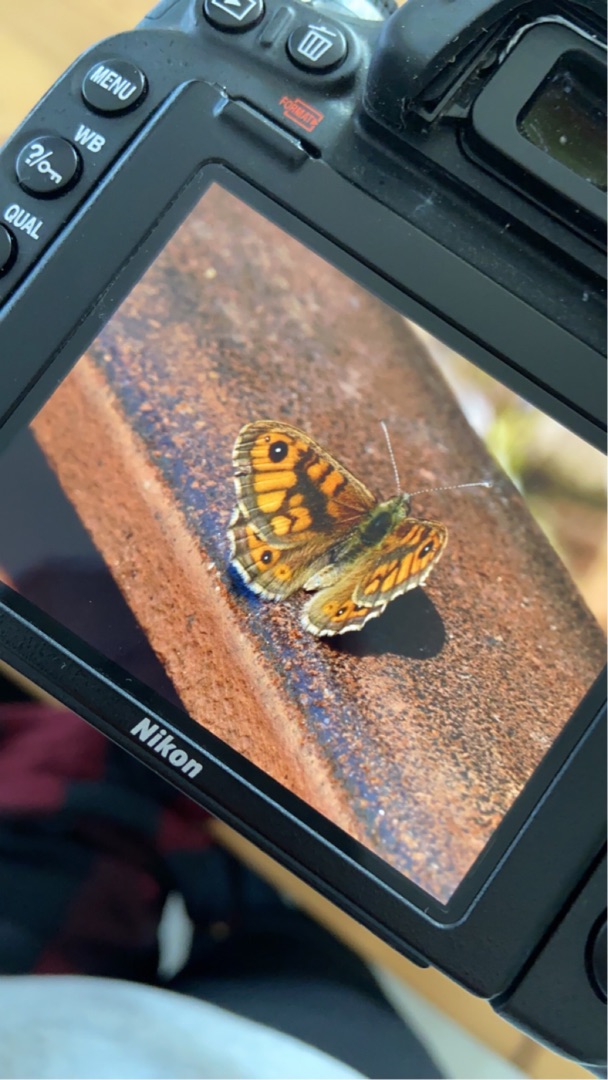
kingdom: Animalia
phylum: Arthropoda
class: Insecta
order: Lepidoptera
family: Nymphalidae
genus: Pararge
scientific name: Pararge Lasiommata megera
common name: Vejrandøje
